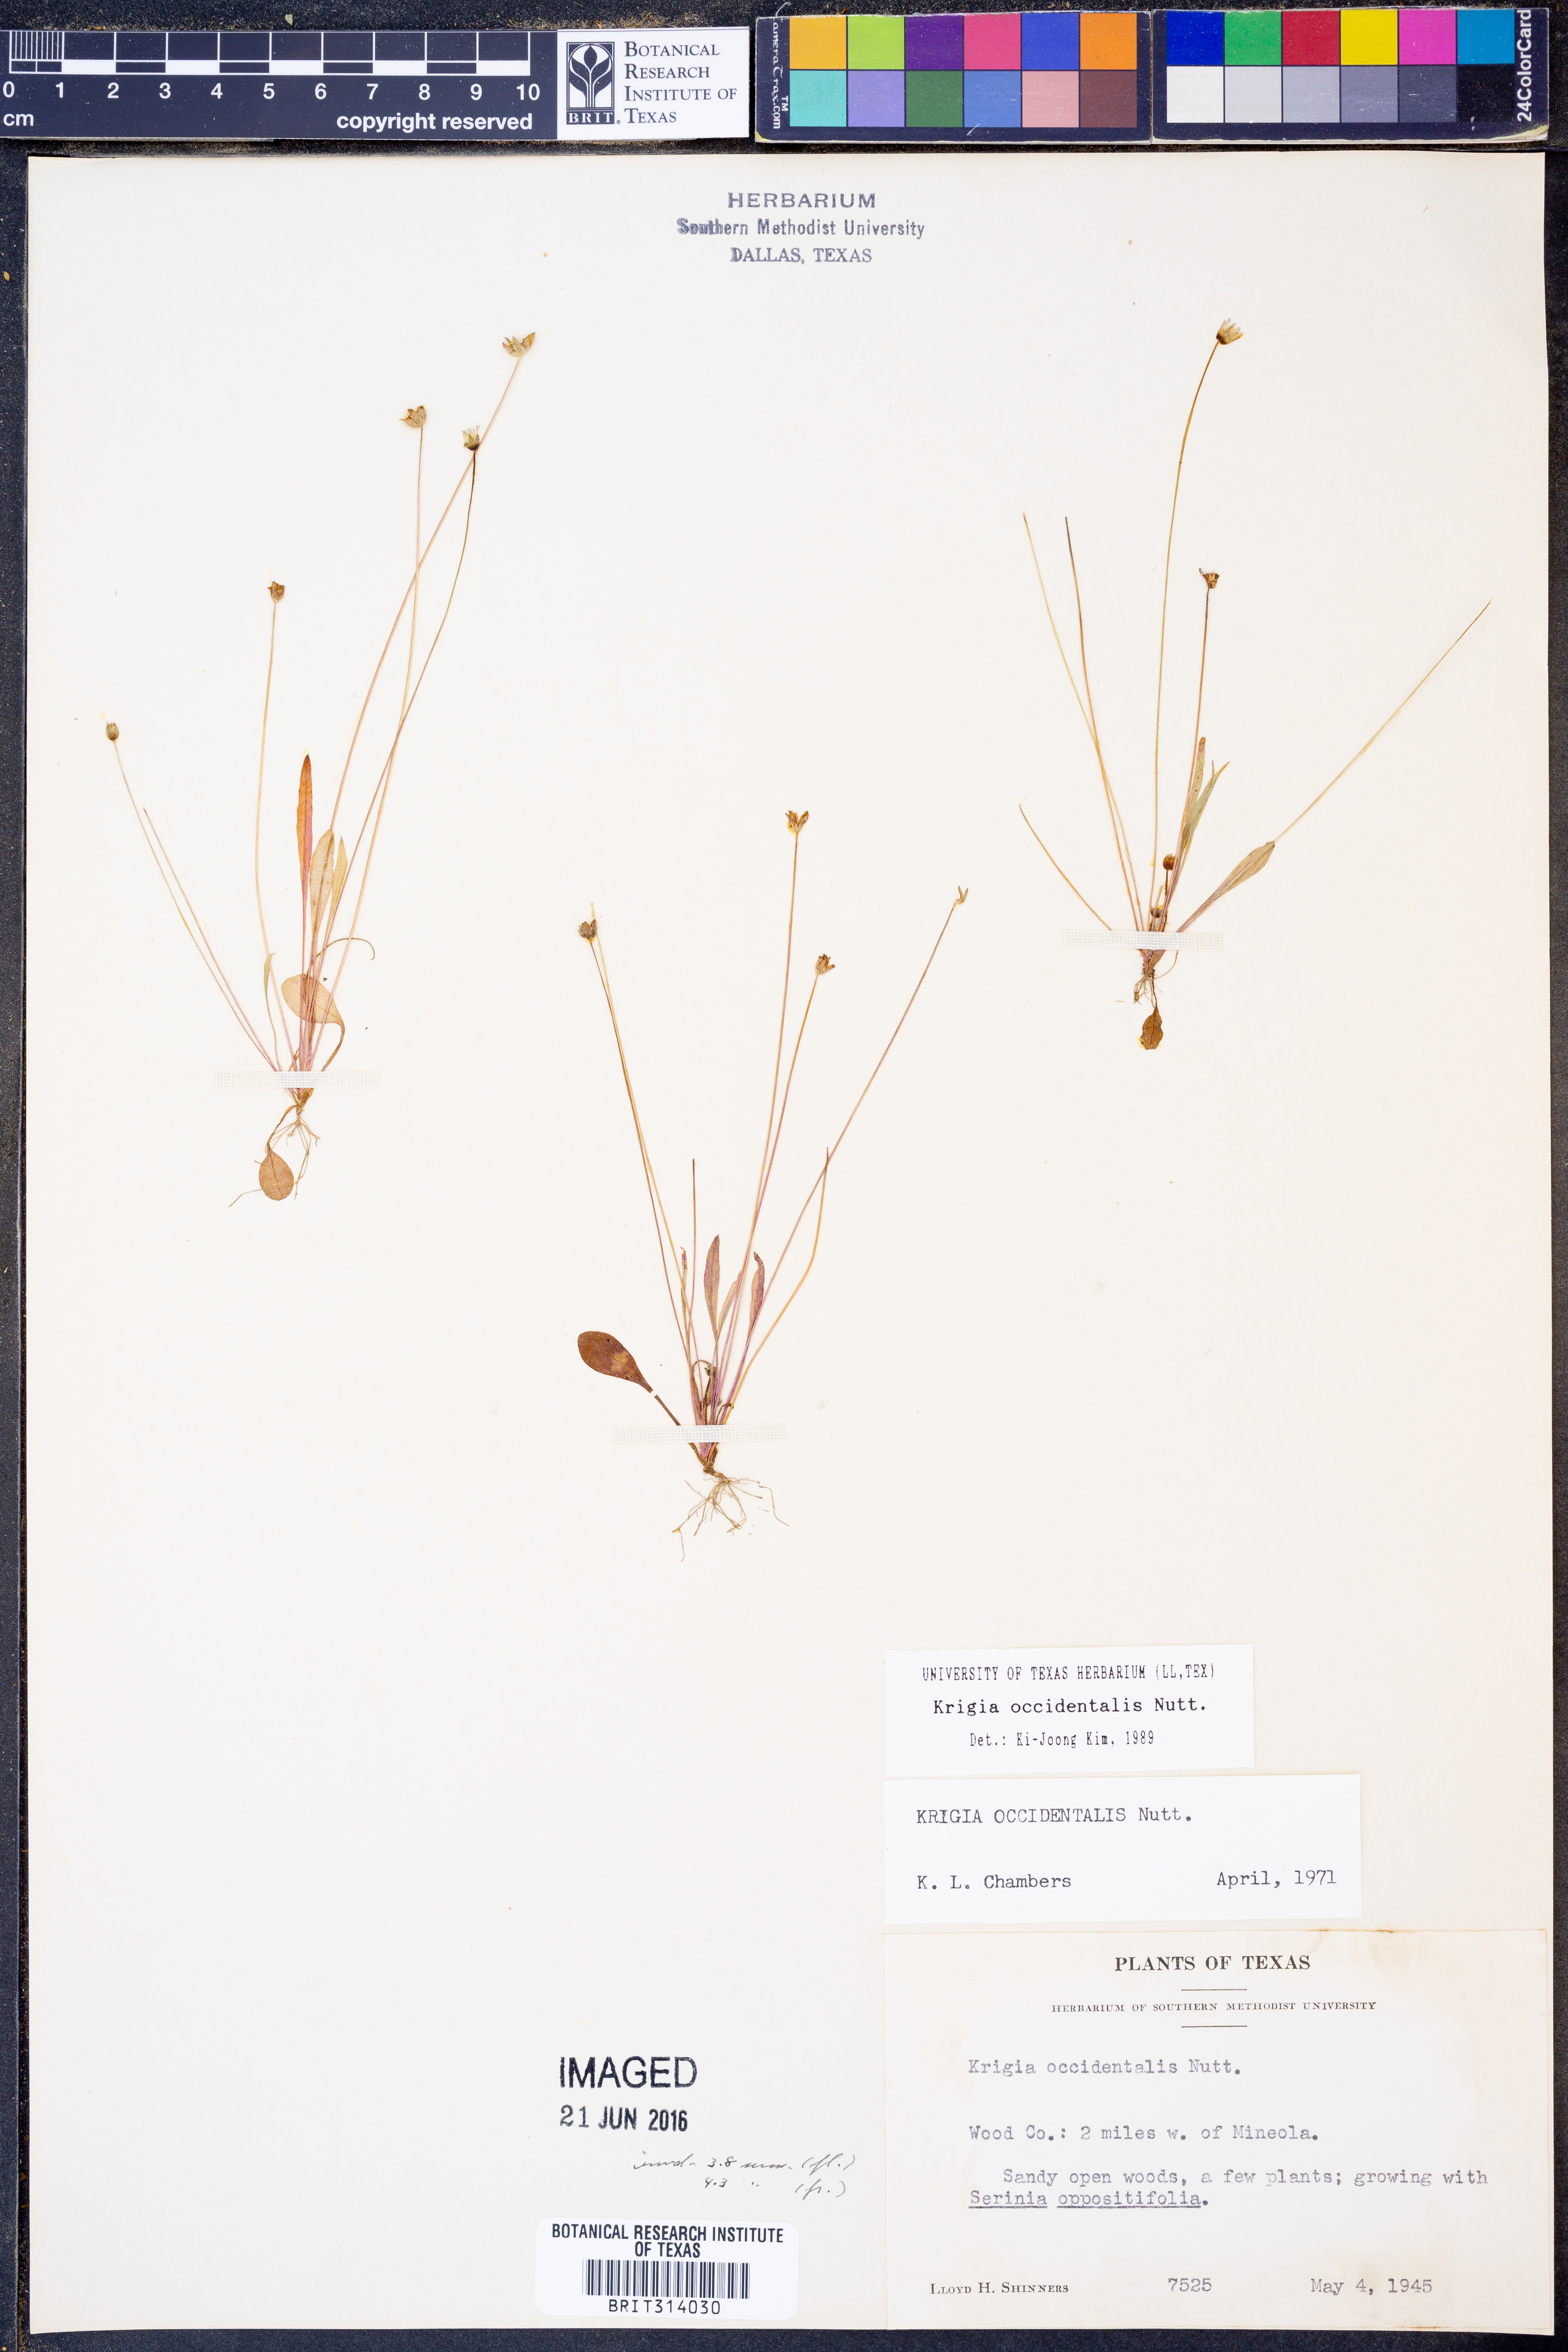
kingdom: Plantae
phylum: Tracheophyta
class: Magnoliopsida
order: Asterales
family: Asteraceae
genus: Krigia
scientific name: Krigia occidentalis
